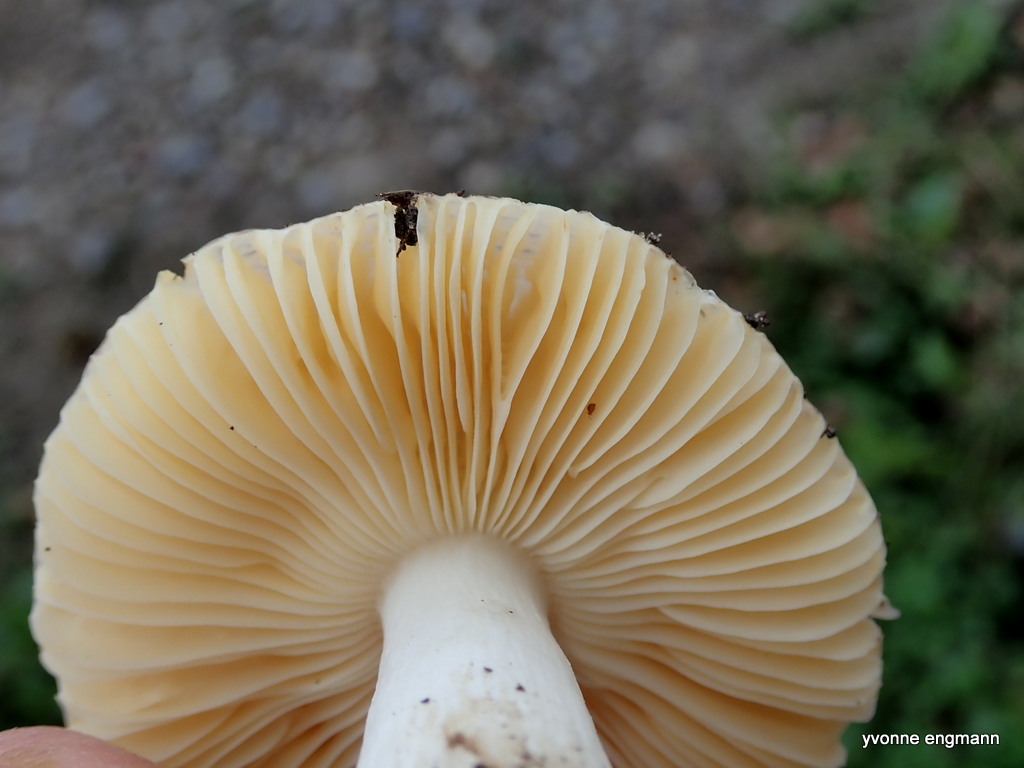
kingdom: Fungi
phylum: Basidiomycota
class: Agaricomycetes
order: Russulales
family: Russulaceae
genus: Russula
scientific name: Russula
